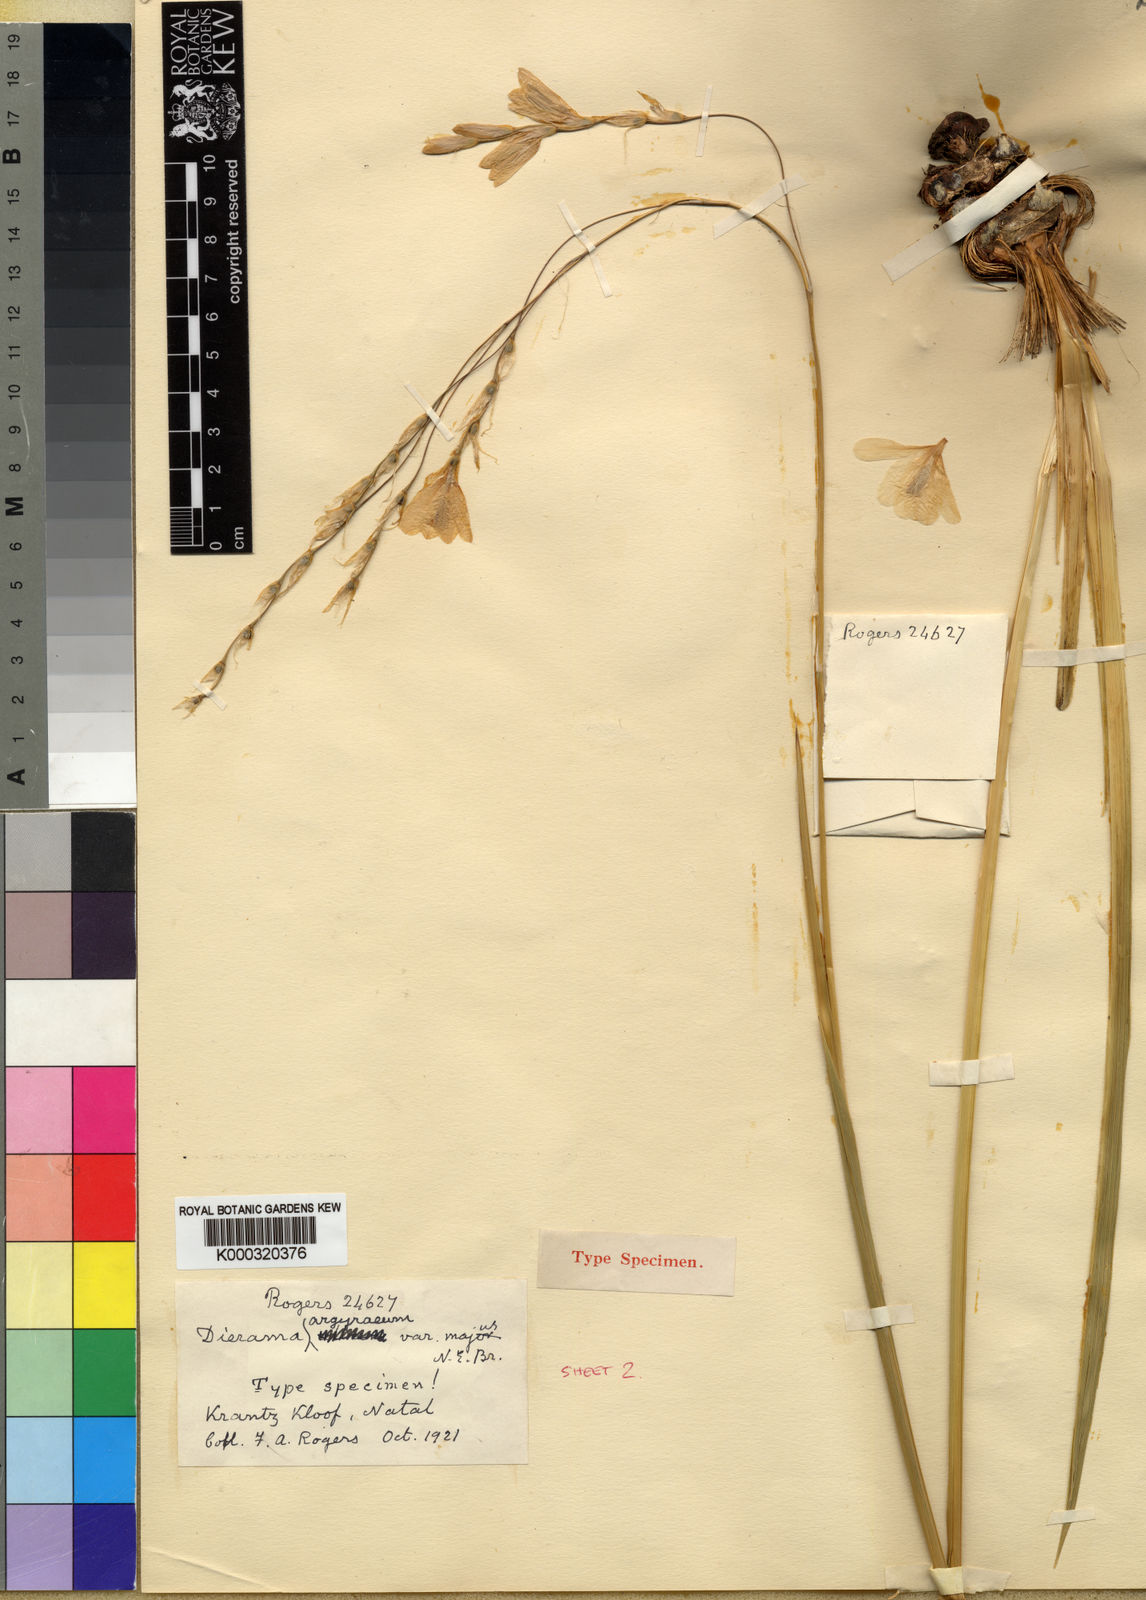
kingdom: Plantae
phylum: Tracheophyta
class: Liliopsida
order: Asparagales
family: Iridaceae
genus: Dierama
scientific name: Dierama argyreum
